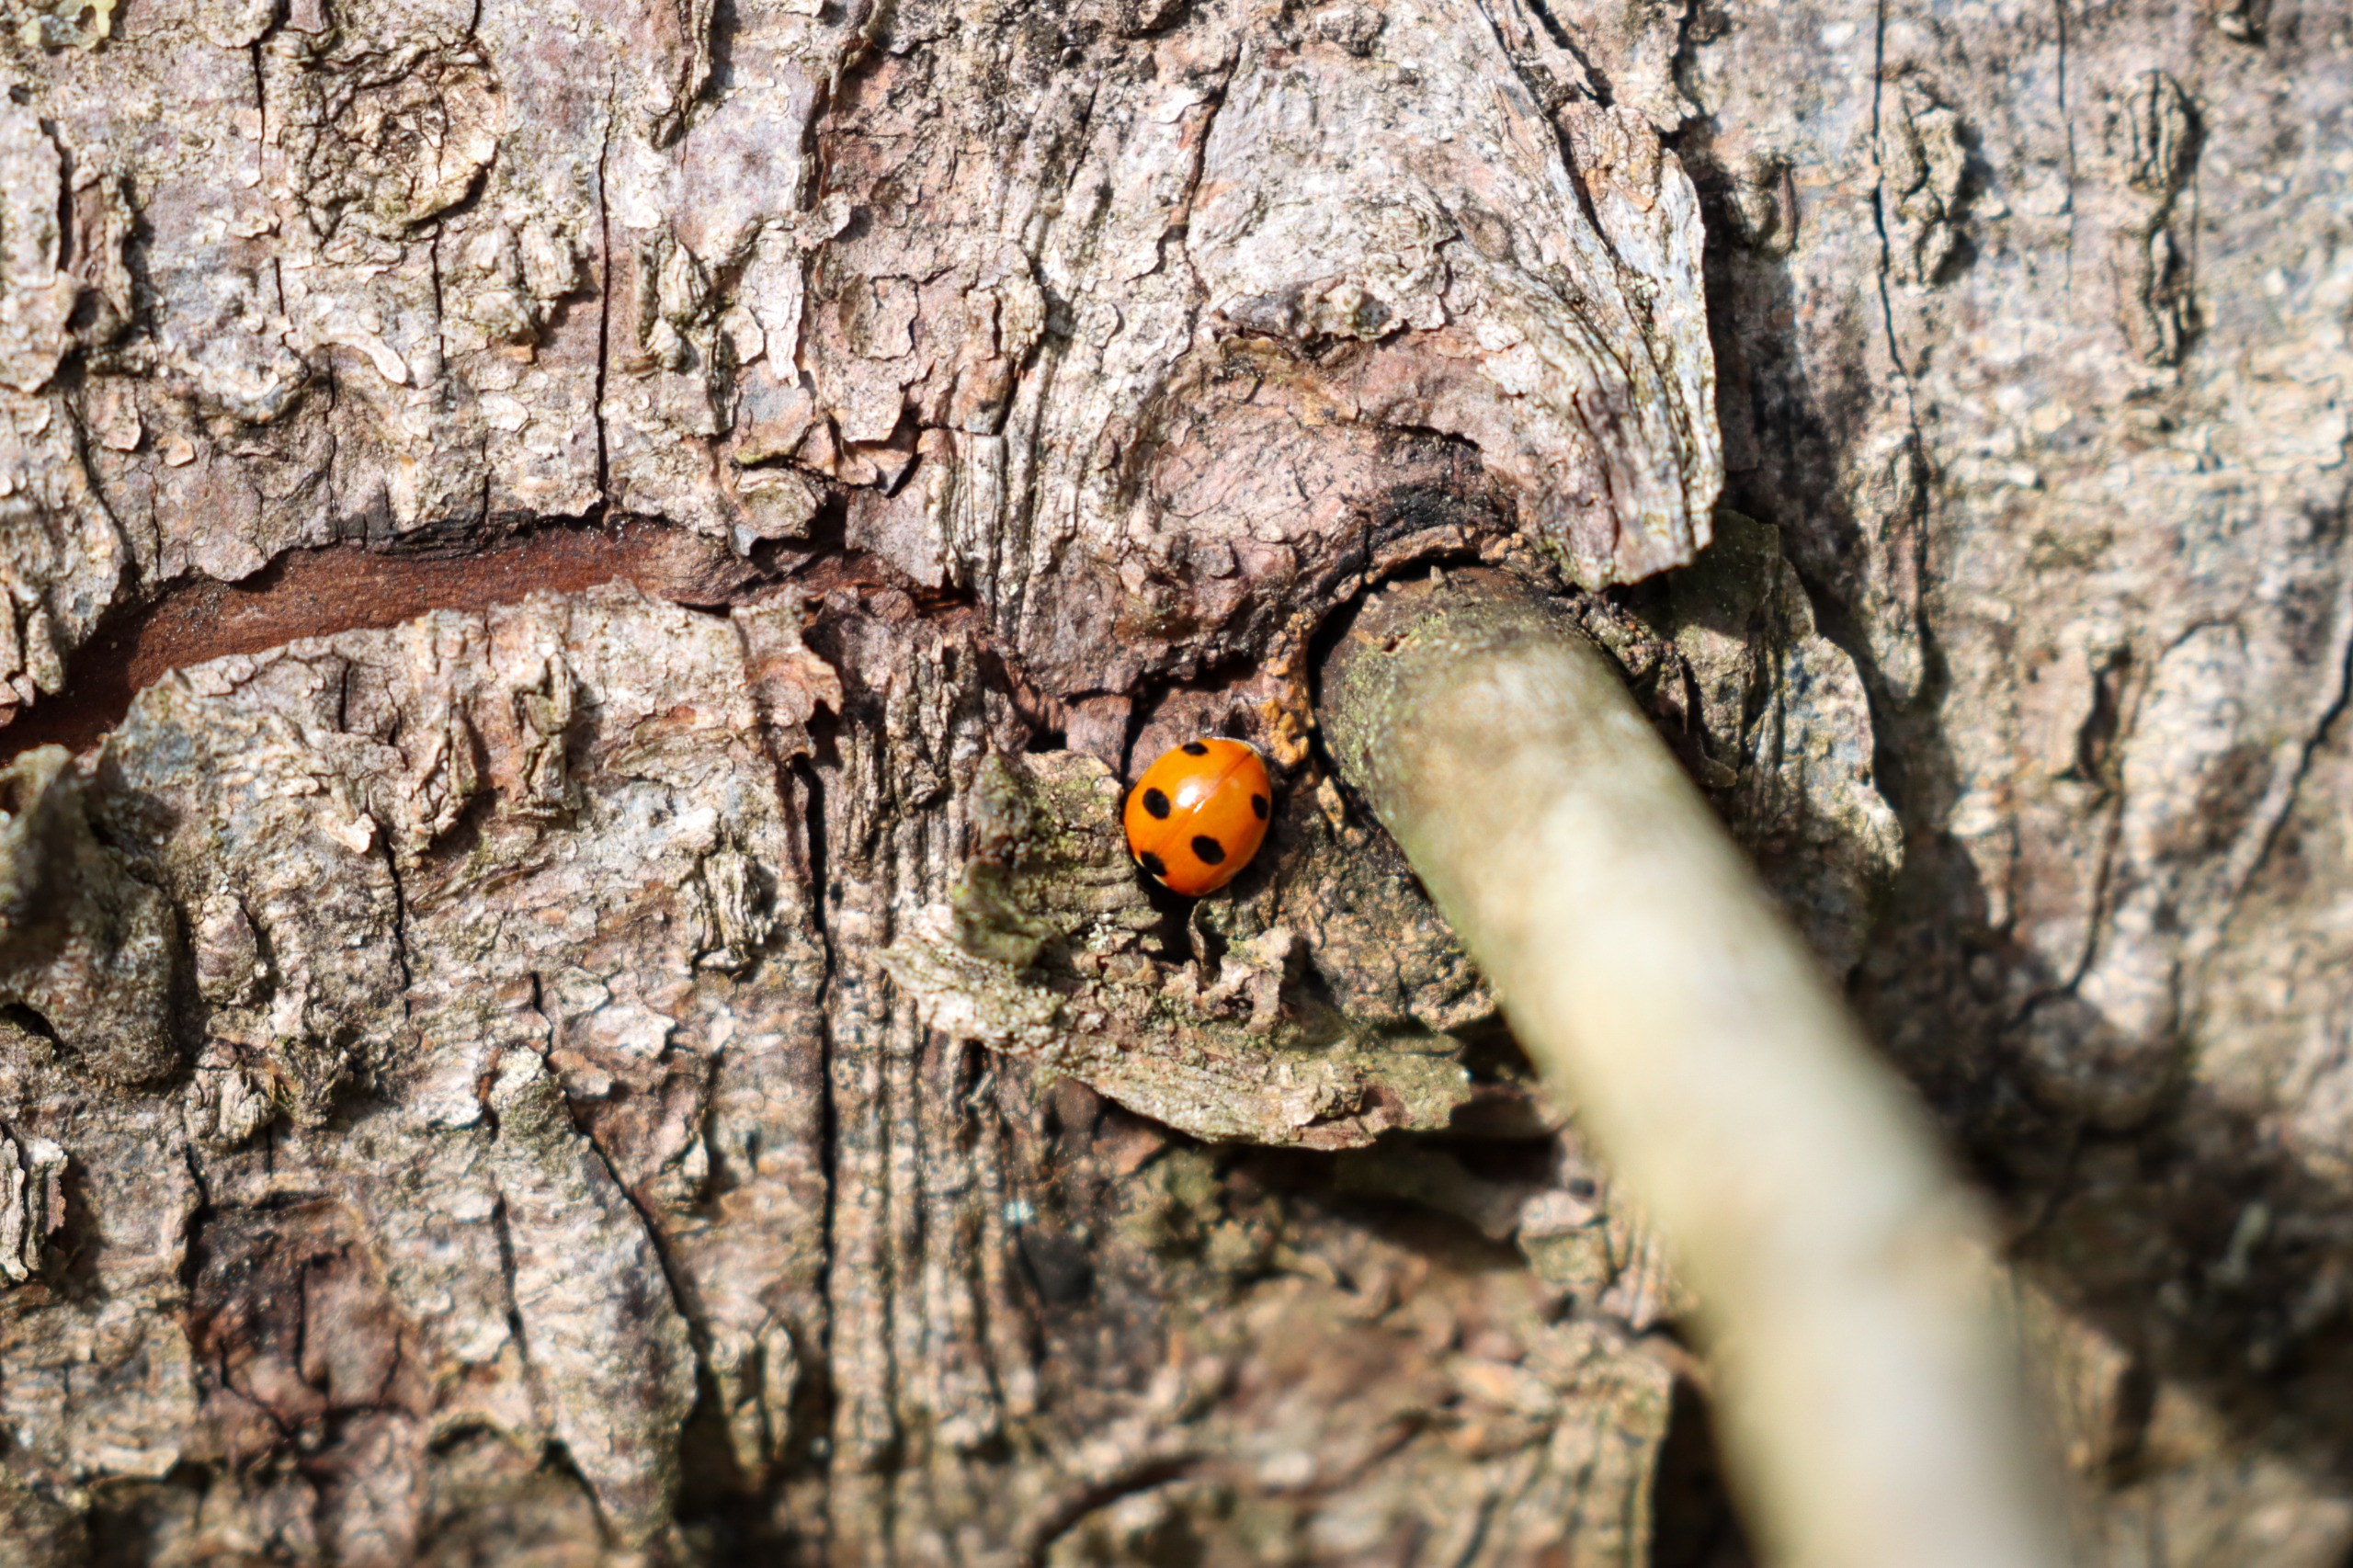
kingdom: Animalia
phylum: Arthropoda
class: Insecta
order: Coleoptera
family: Coccinellidae
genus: Coccinella
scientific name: Coccinella septempunctata
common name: Syvplettet mariehøne
